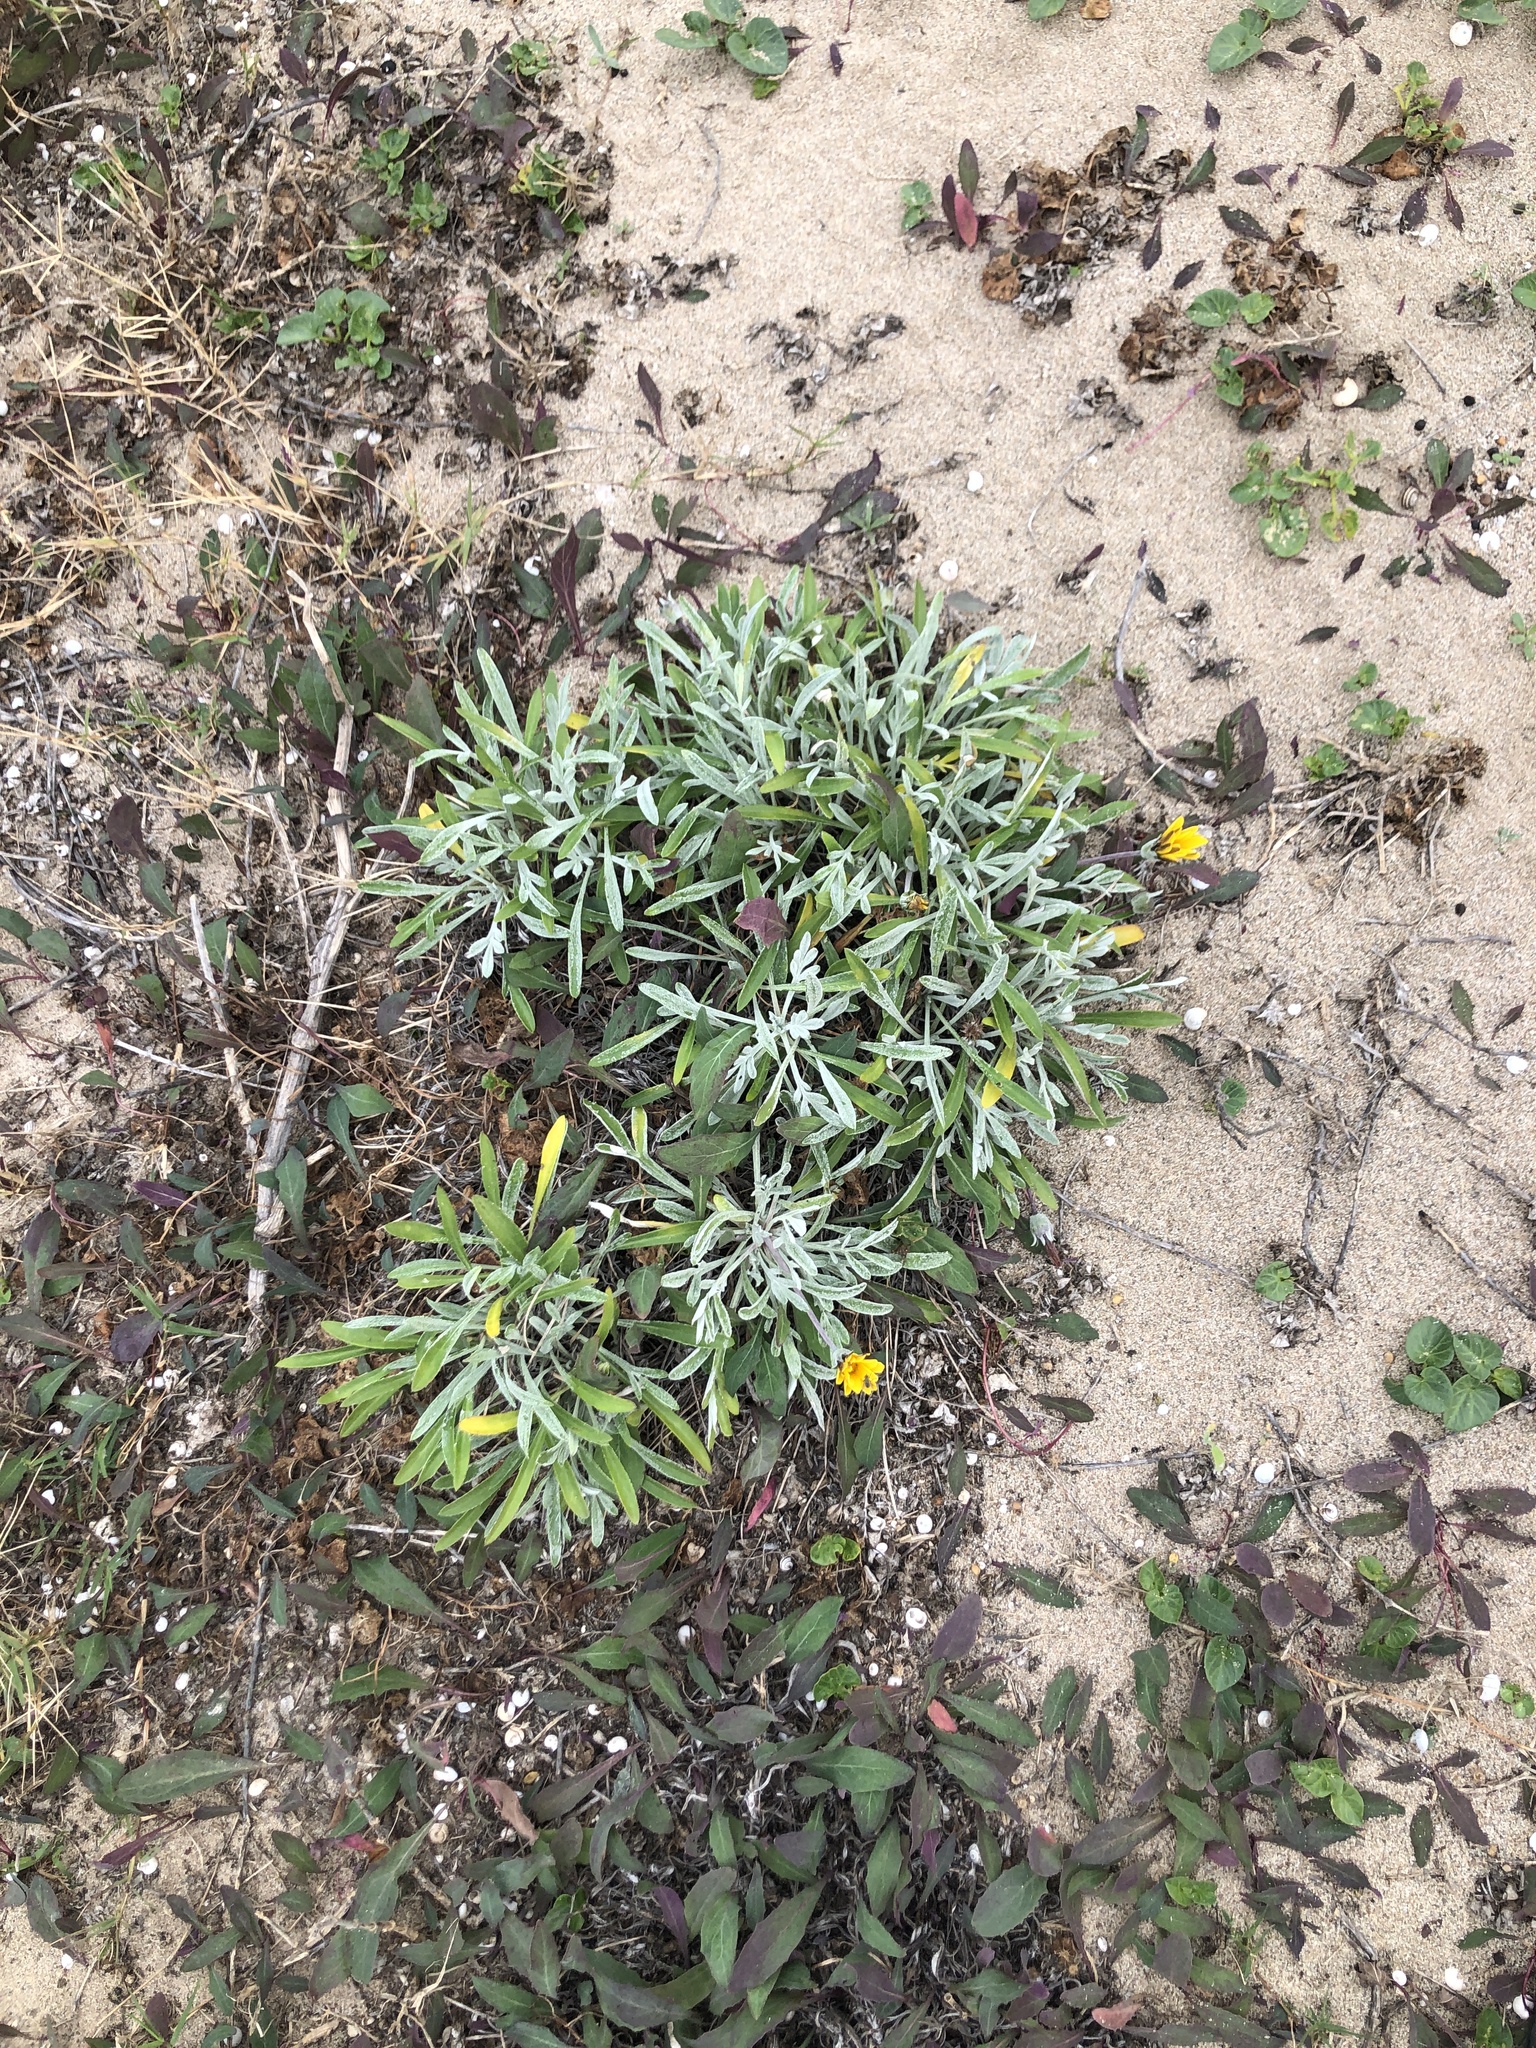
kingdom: Plantae
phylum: Tracheophyta
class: Magnoliopsida
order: Asterales
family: Asteraceae
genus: Gazania
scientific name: Gazania rigens
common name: Treasureflower
